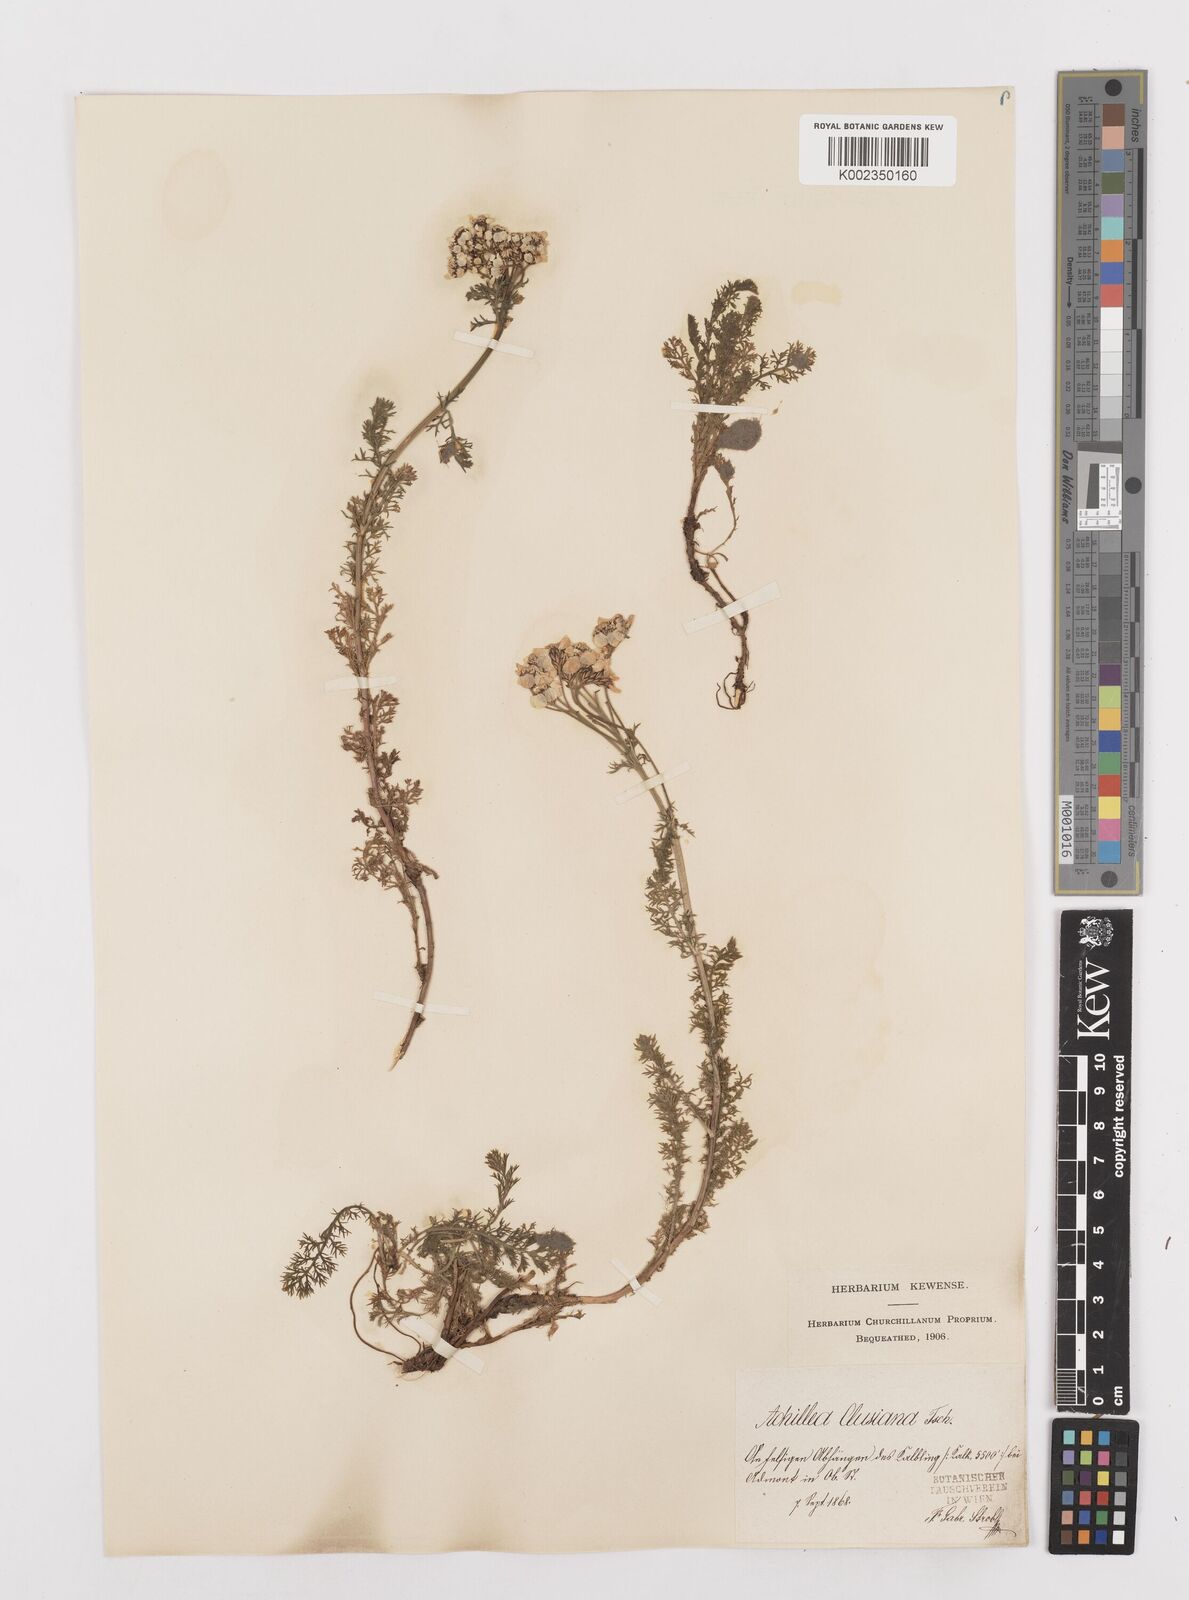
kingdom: Plantae
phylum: Tracheophyta
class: Magnoliopsida
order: Asterales
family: Asteraceae
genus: Achillea
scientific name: Achillea clusiana
